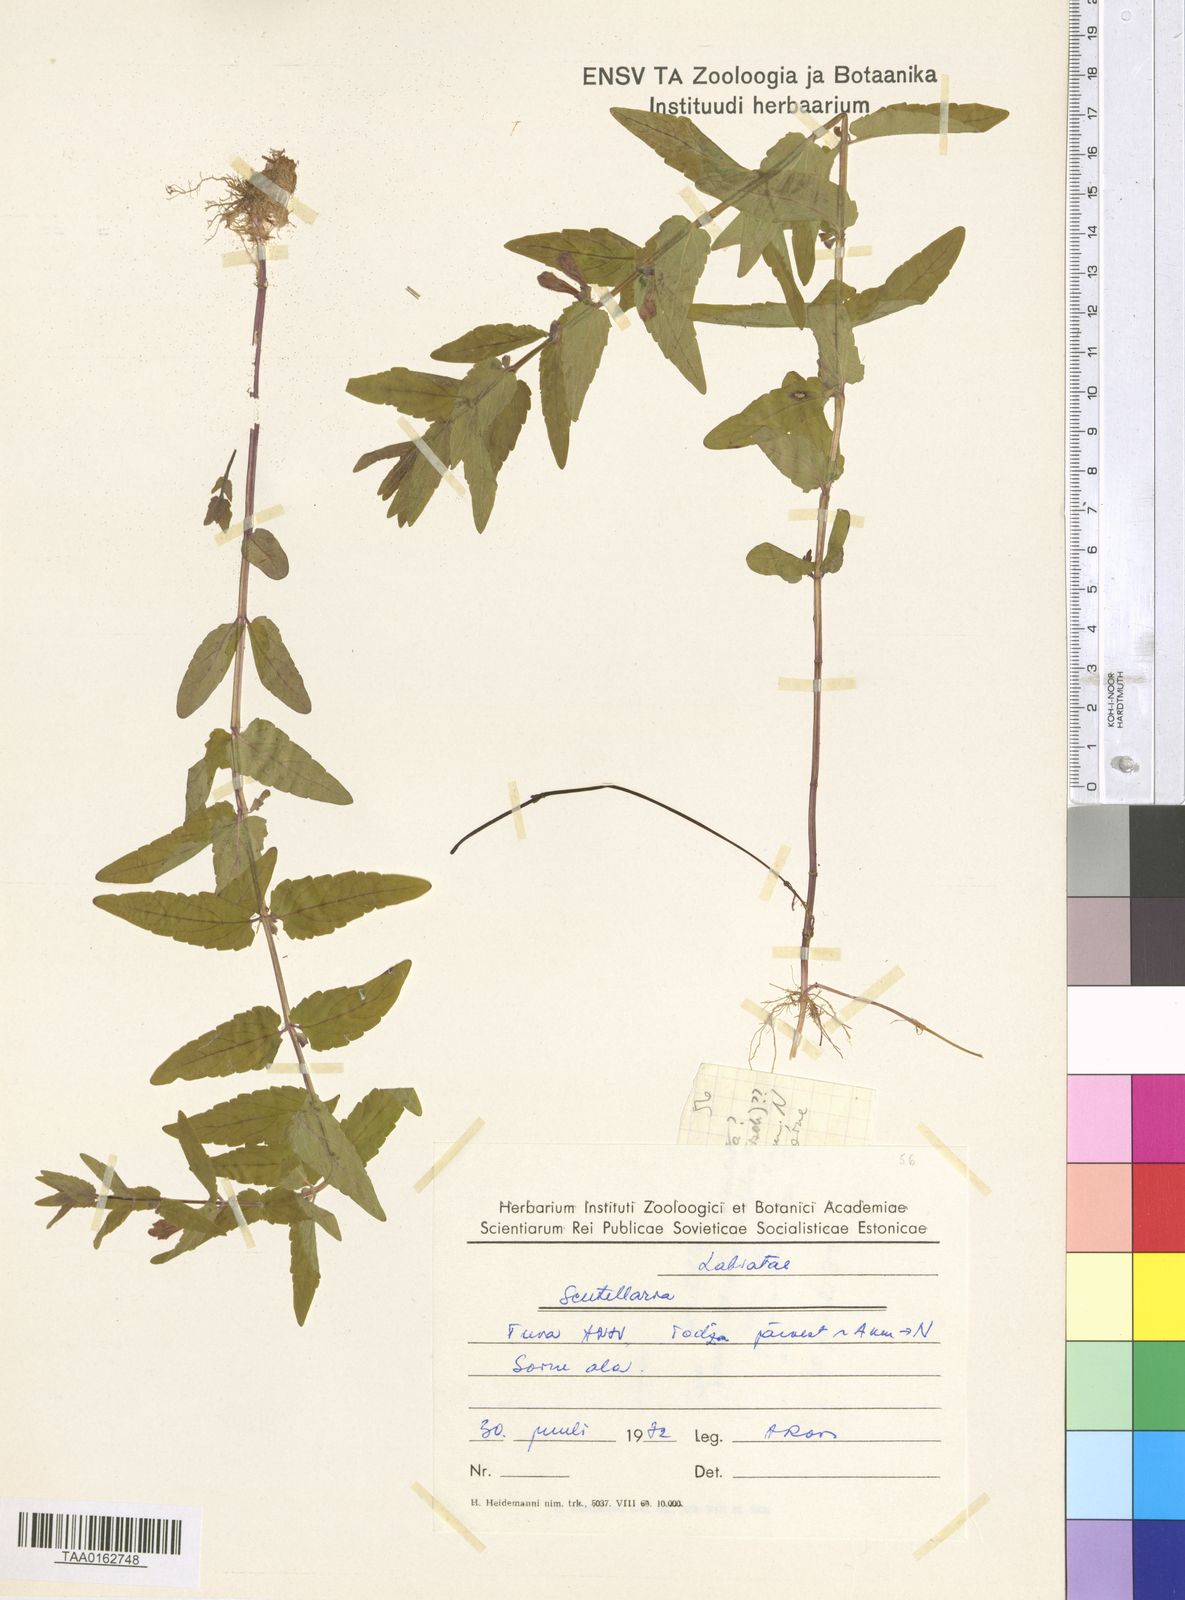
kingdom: Plantae
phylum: Tracheophyta
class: Magnoliopsida
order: Lamiales
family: Lamiaceae
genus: Scutellaria
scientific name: Scutellaria
